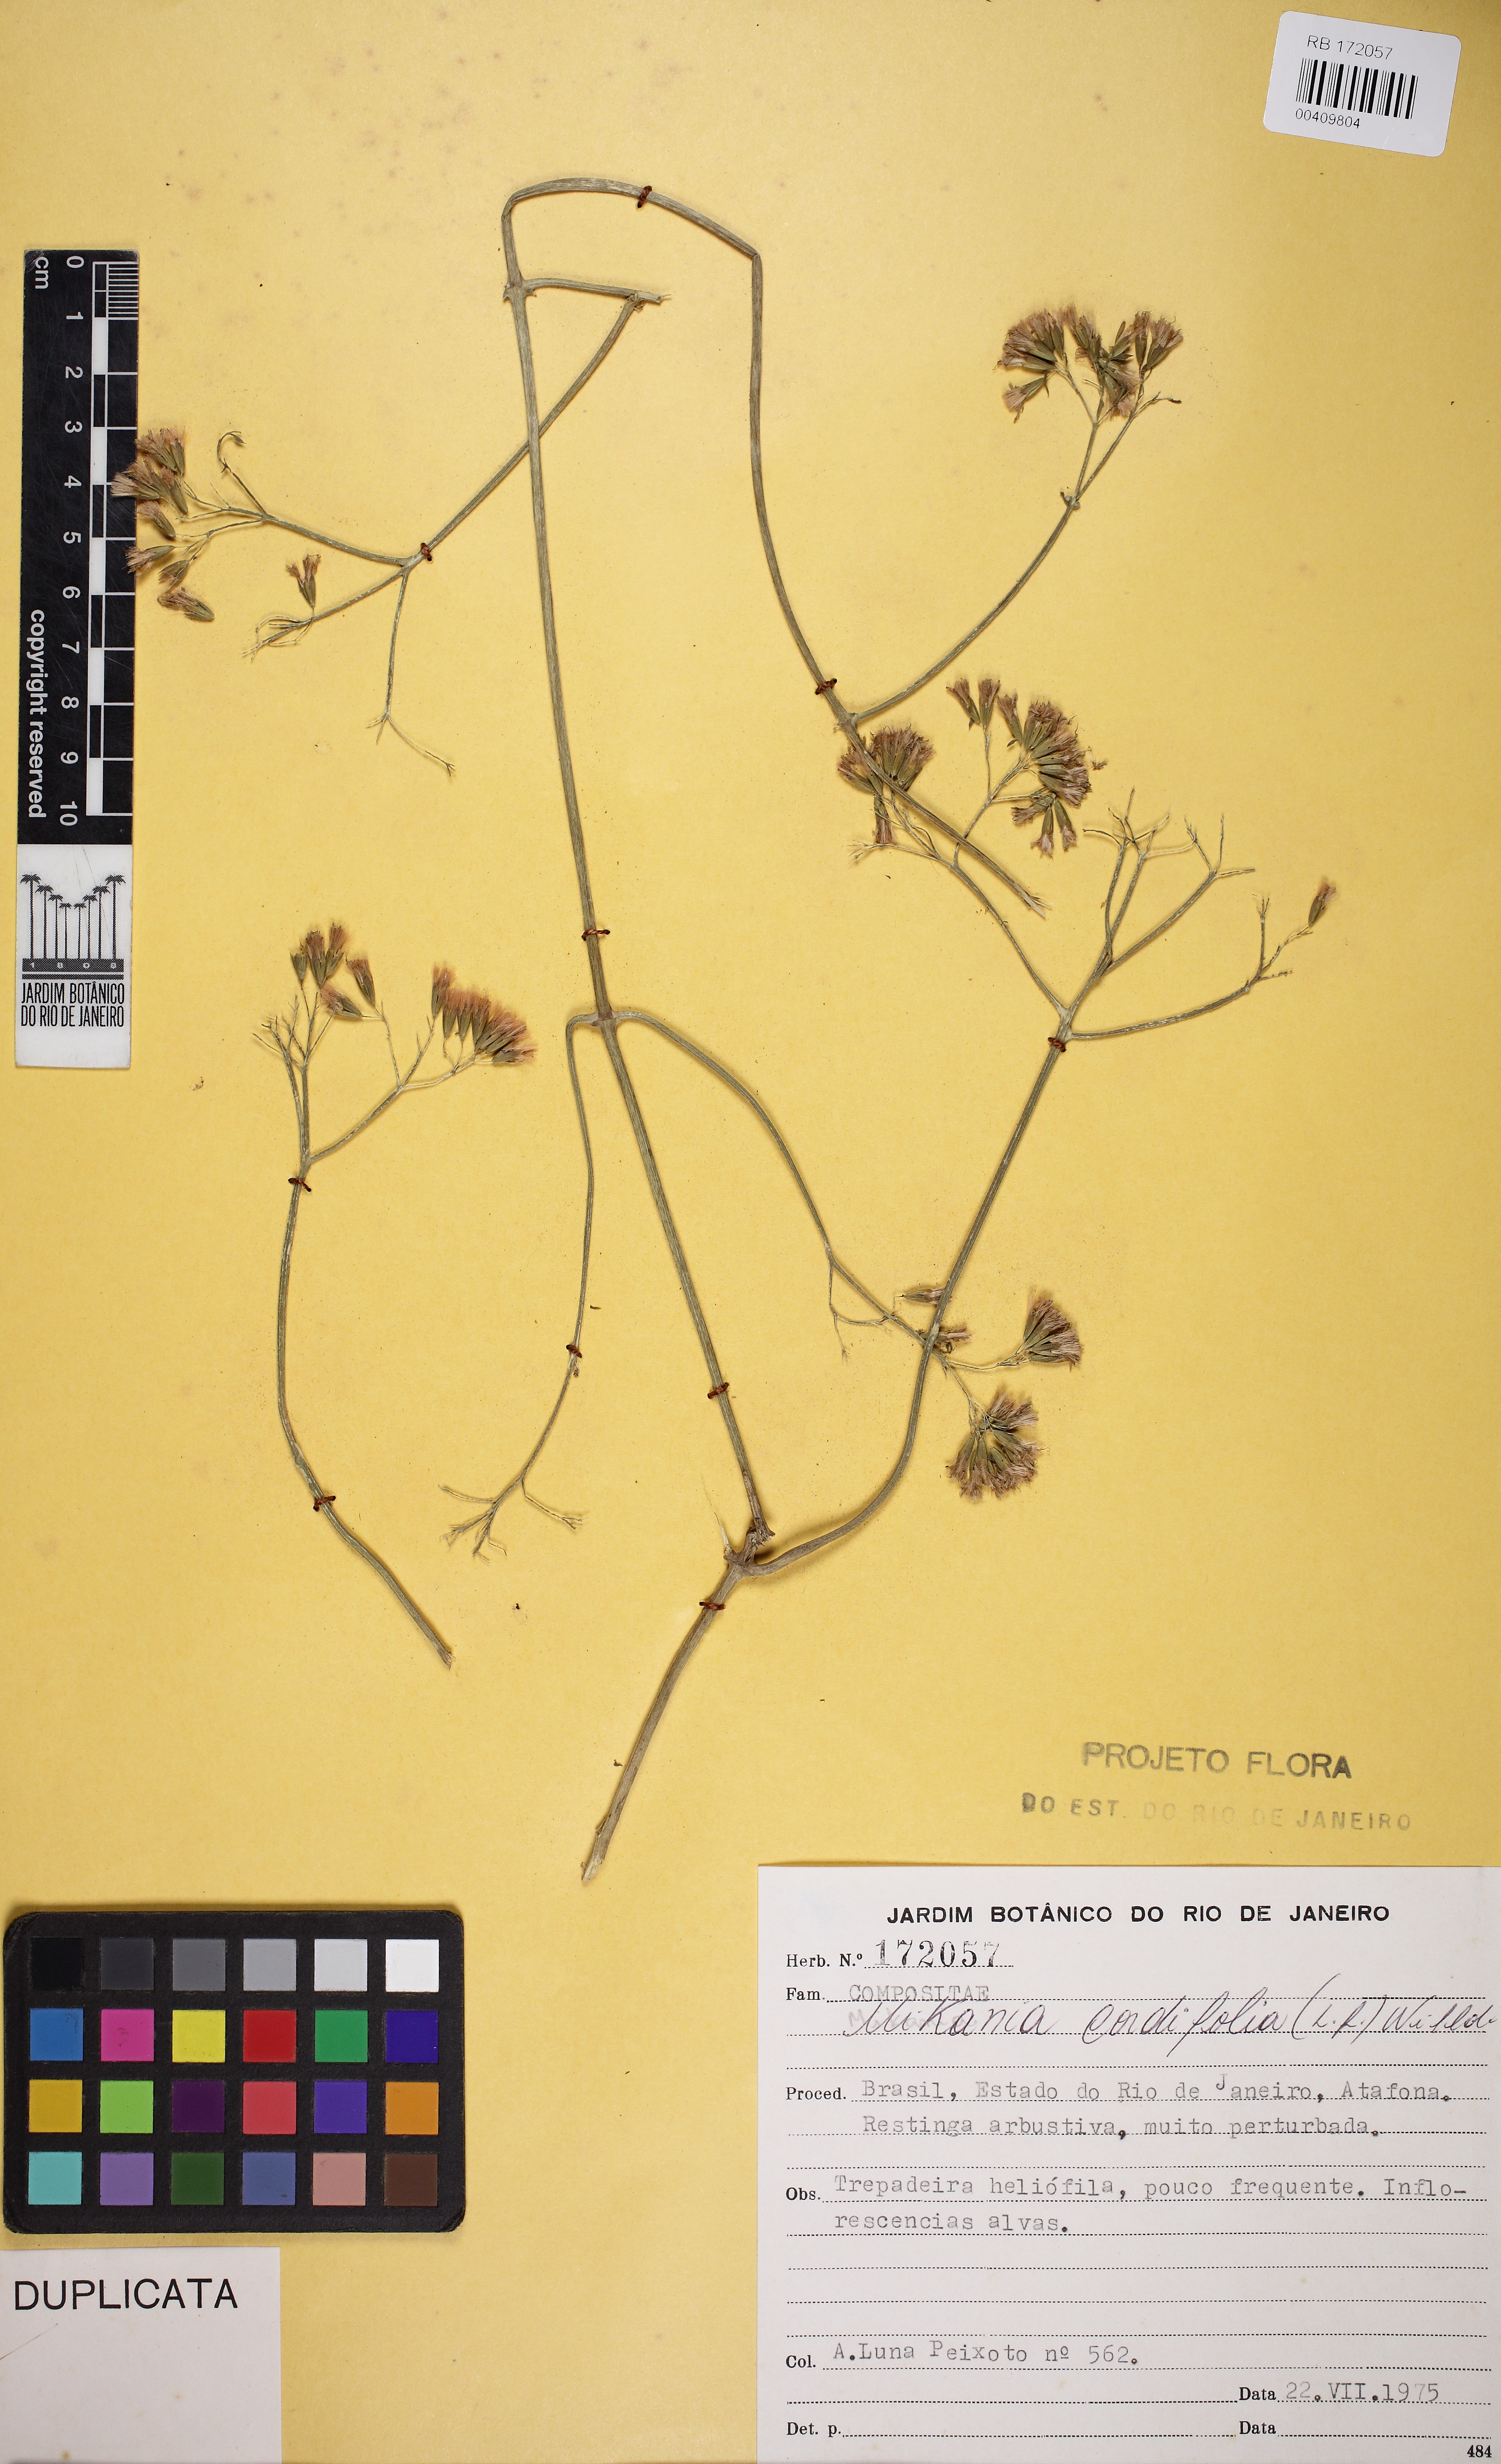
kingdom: Plantae
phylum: Tracheophyta
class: Magnoliopsida
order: Asterales
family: Asteraceae
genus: Mikania
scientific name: Mikania cordifolia
